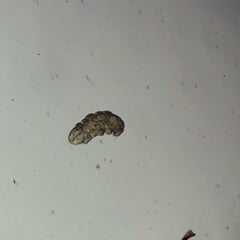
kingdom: Animalia
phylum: Tardigrada
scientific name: Tardigrada
